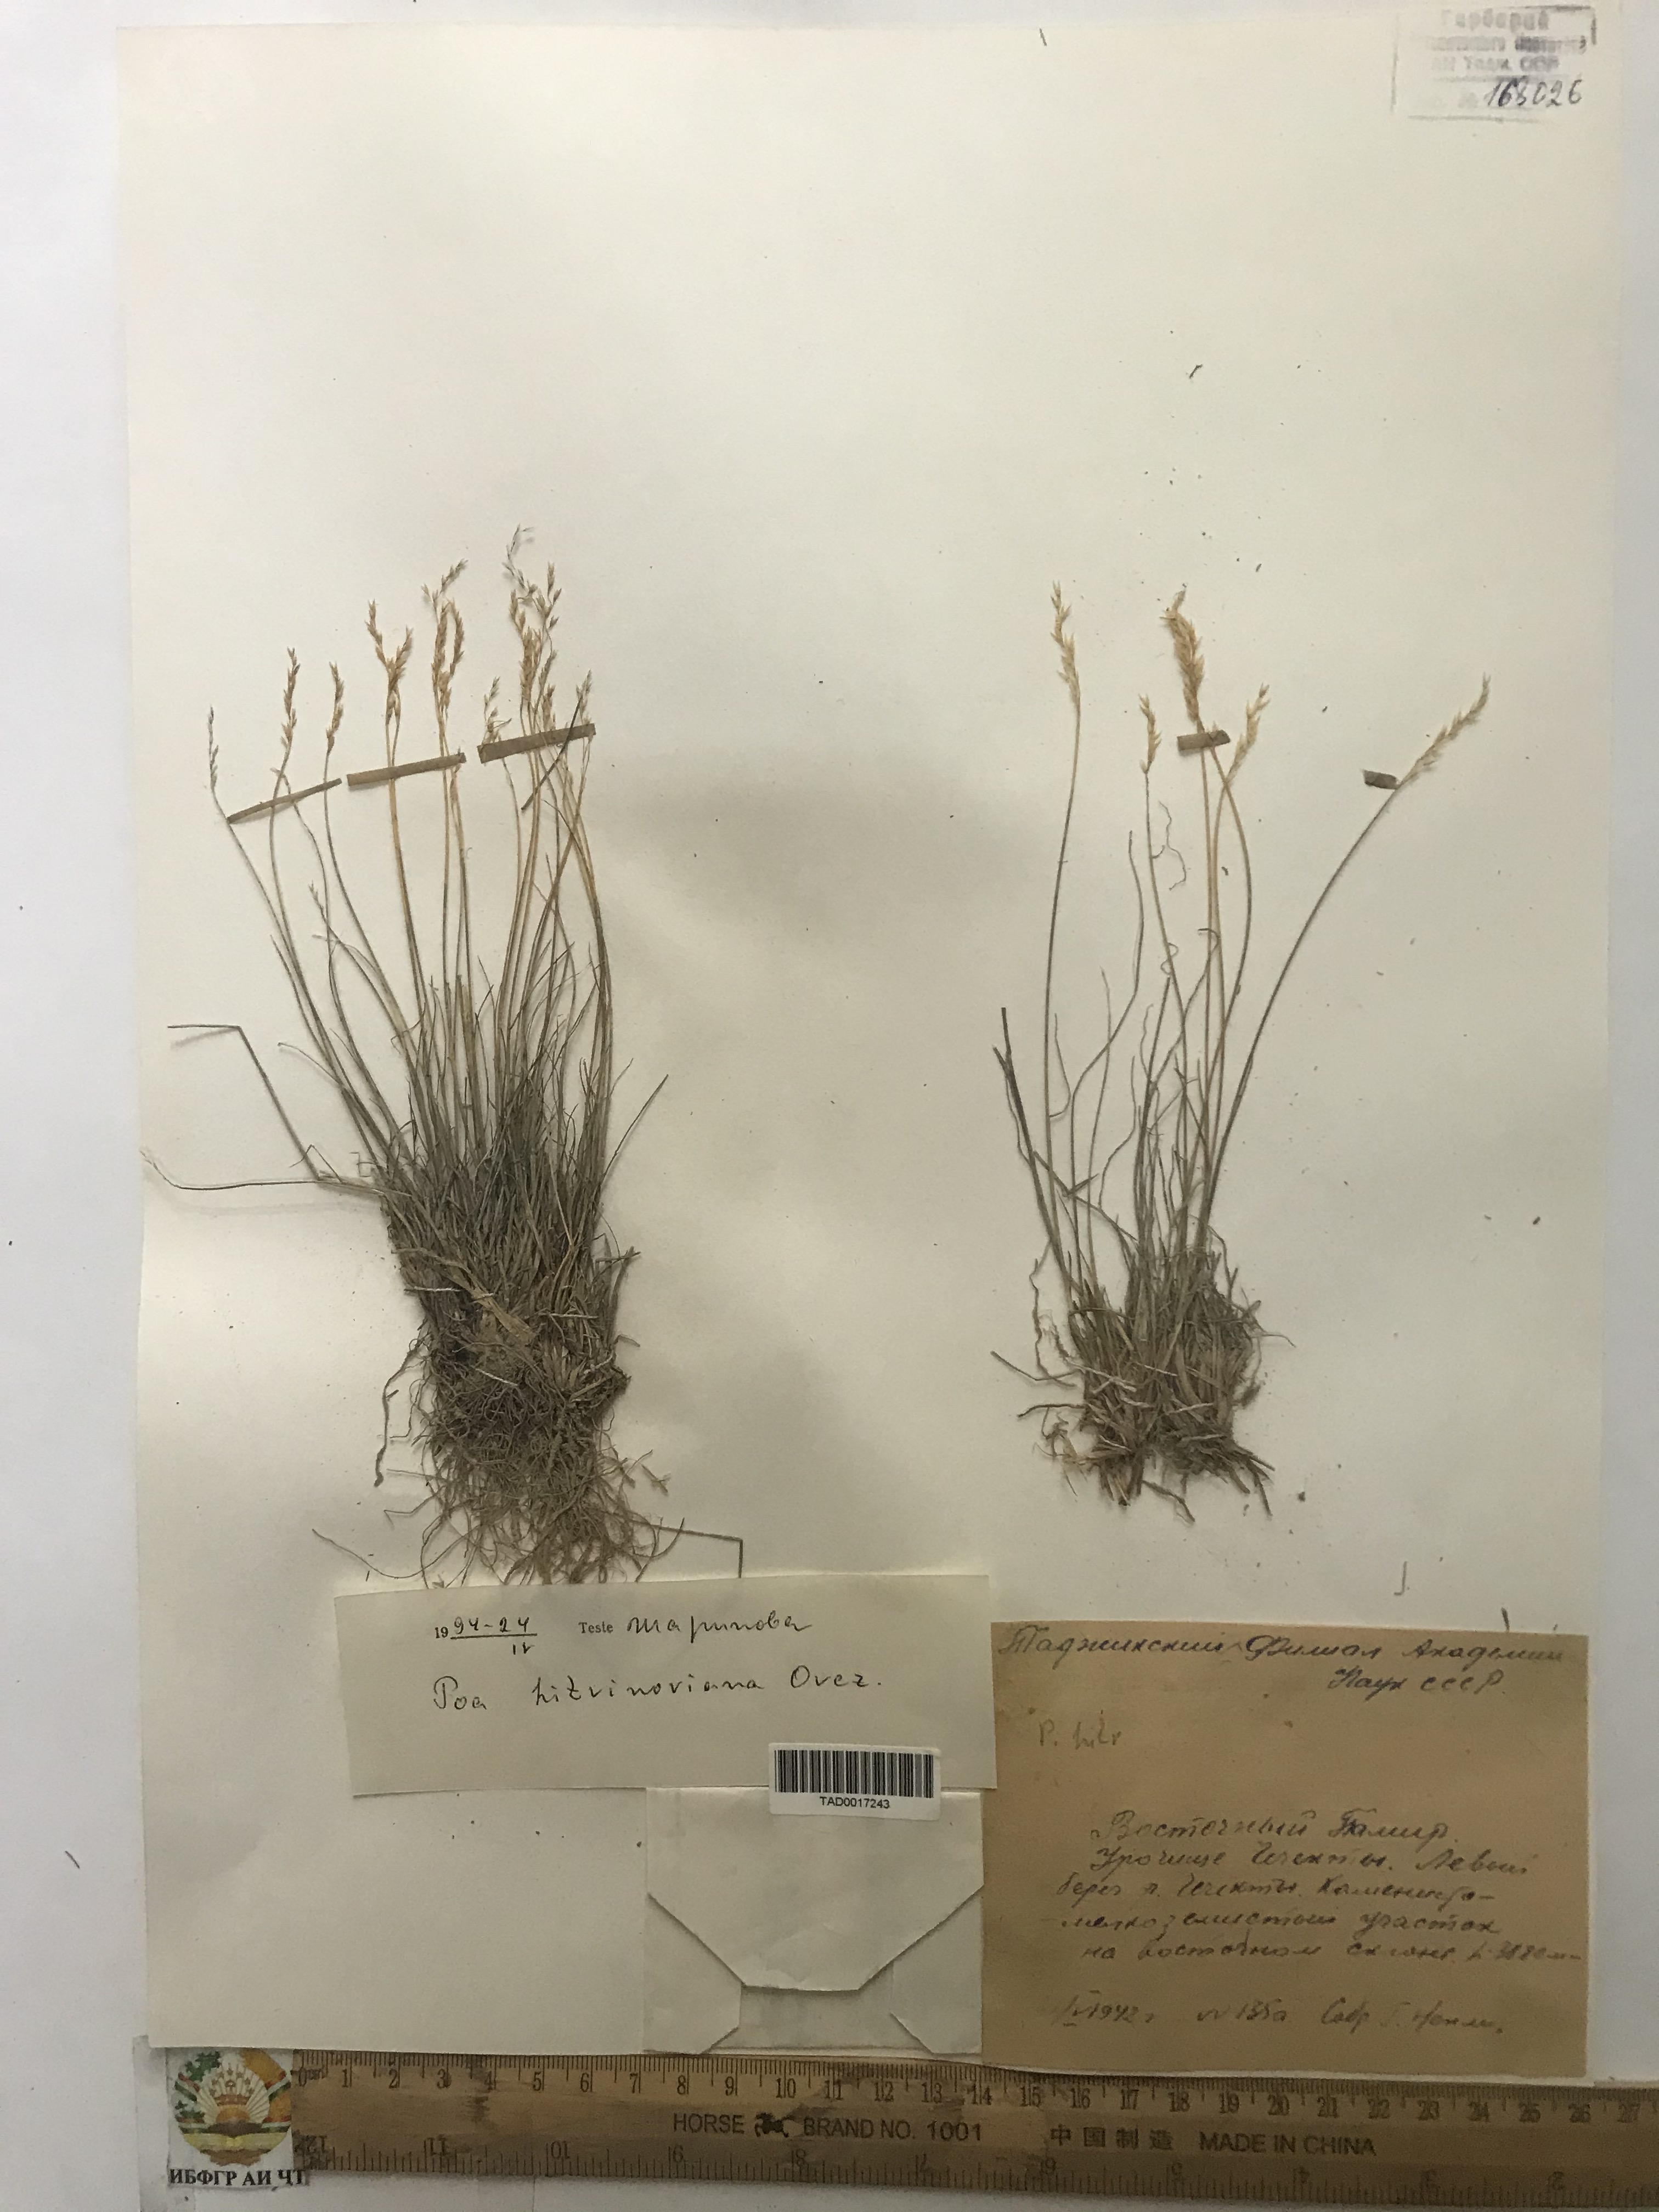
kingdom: Plantae
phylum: Tracheophyta
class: Liliopsida
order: Poales
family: Poaceae
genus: Poa
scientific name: Poa glauca
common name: Glaucous bluegrass
